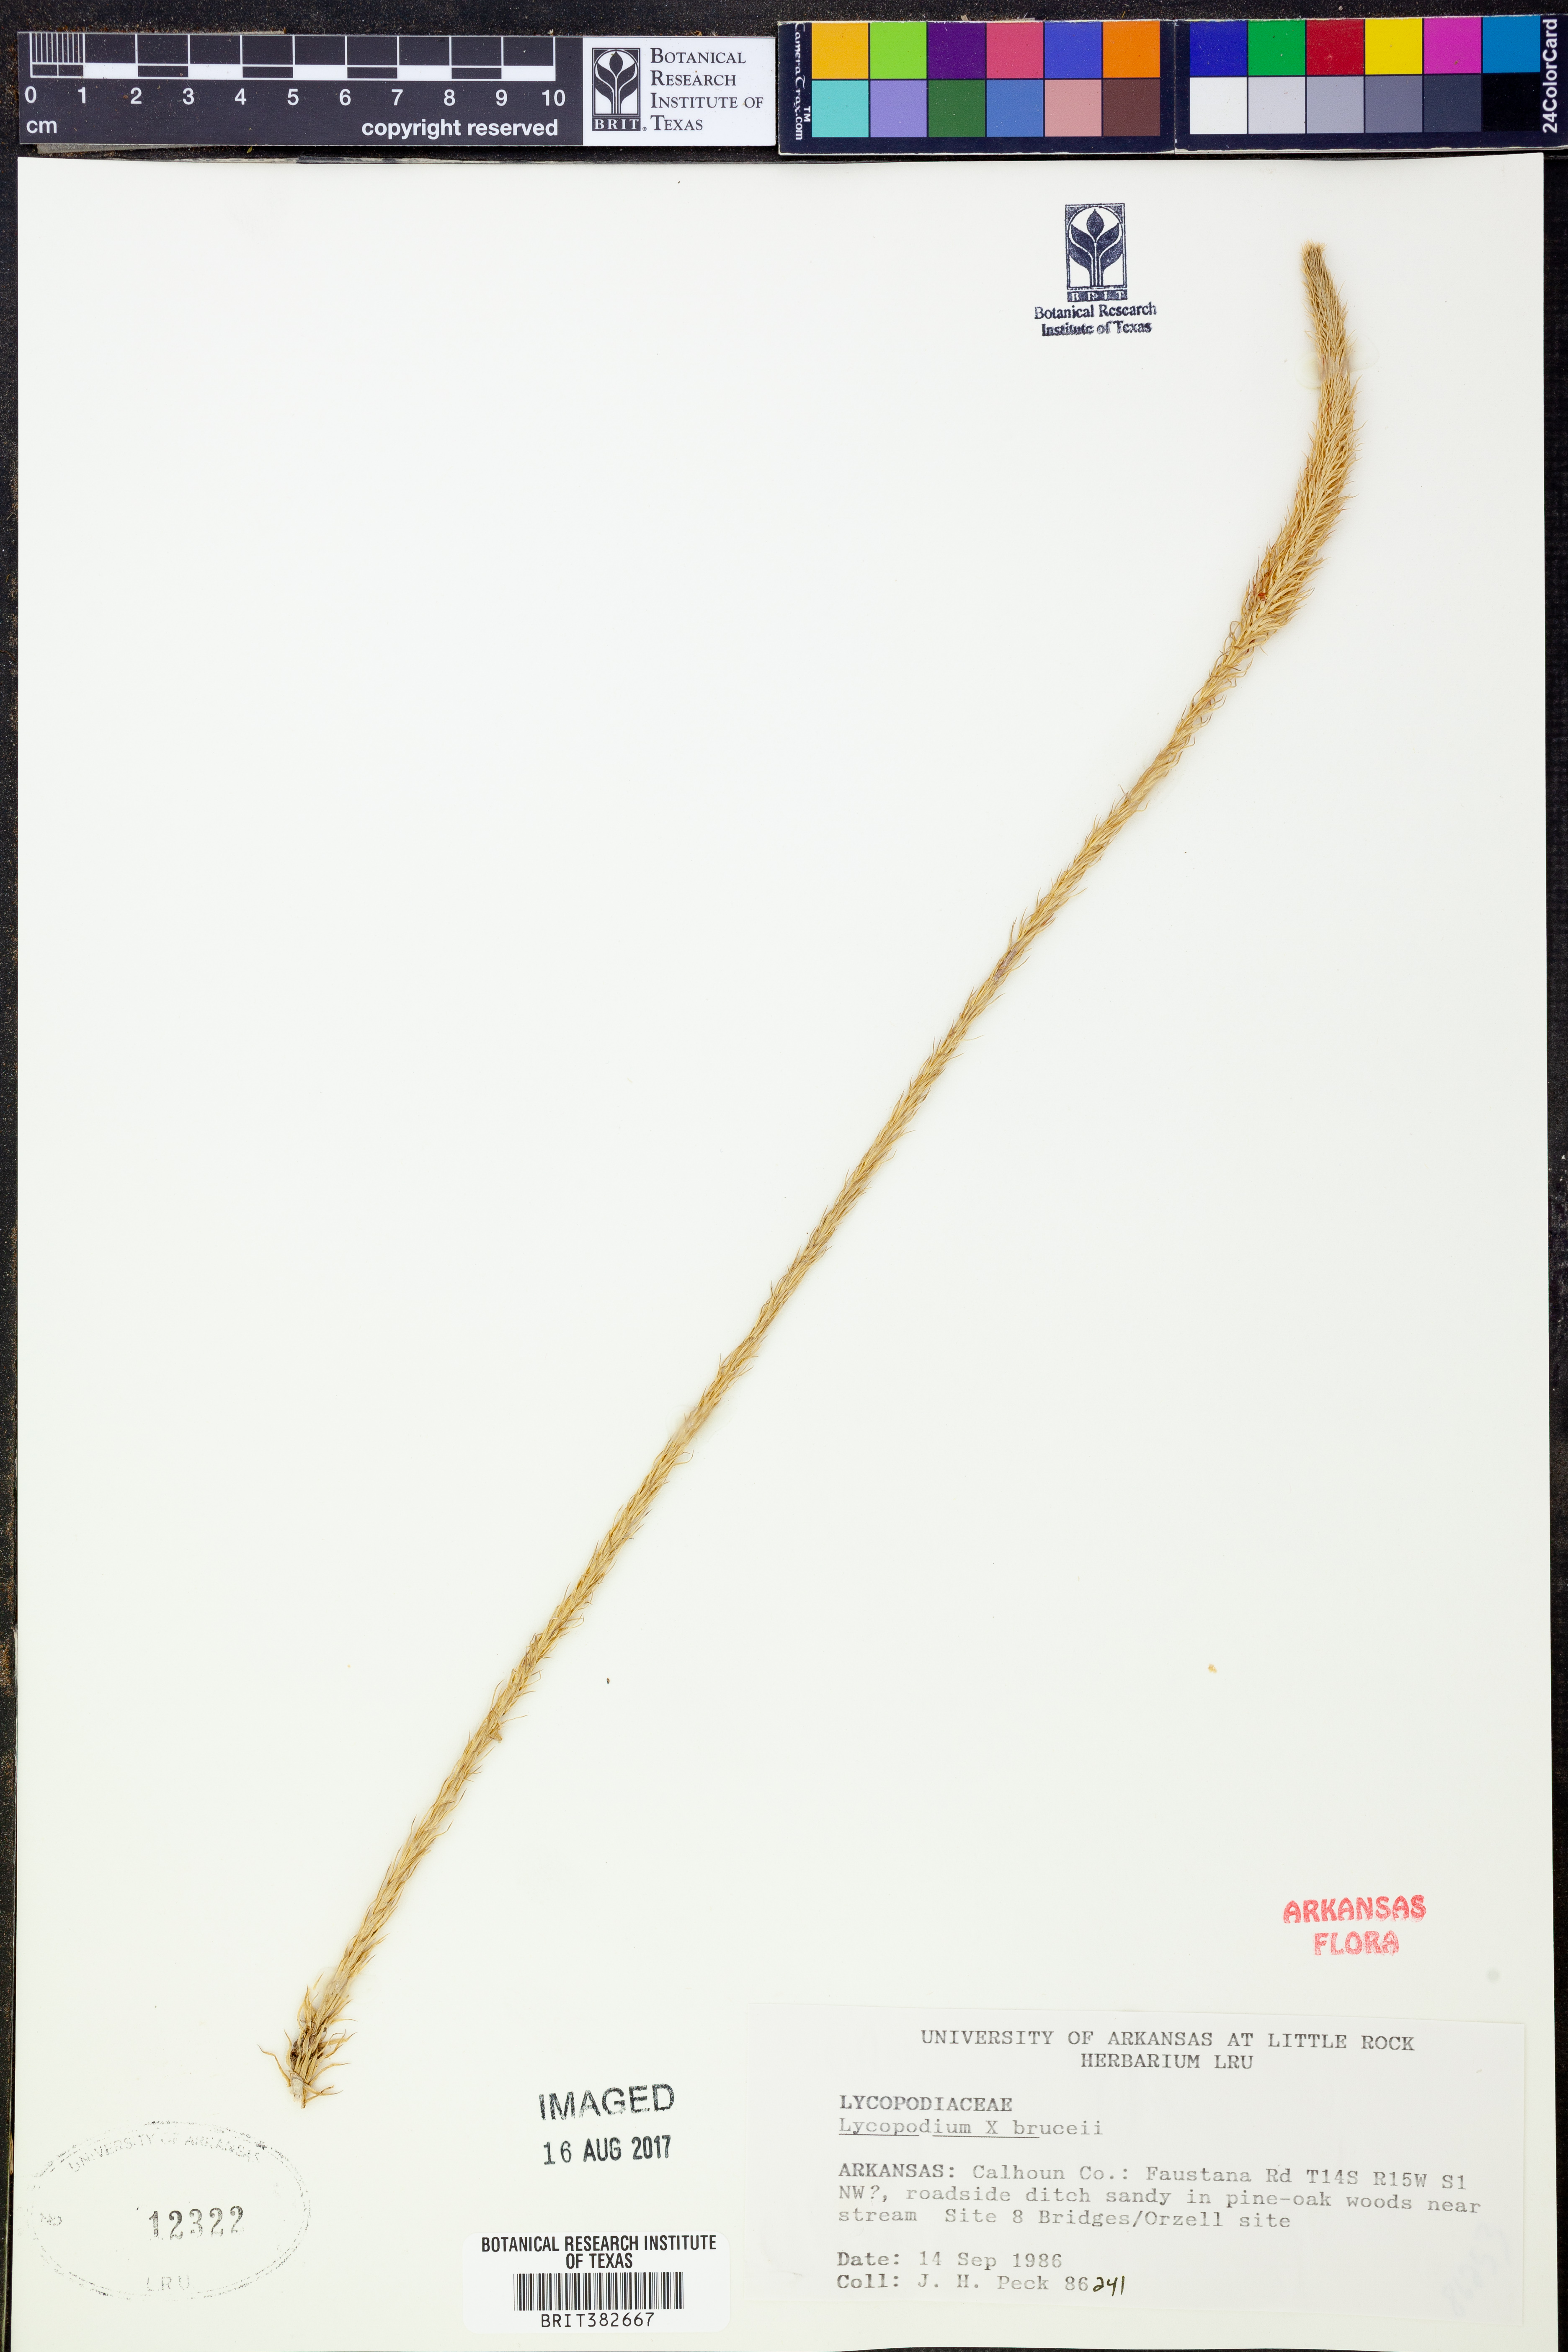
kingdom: Plantae
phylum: Tracheophyta
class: Lycopodiopsida
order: Lycopodiales
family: Lycopodiaceae
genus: Lycopodiella
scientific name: Lycopodiella brucei
